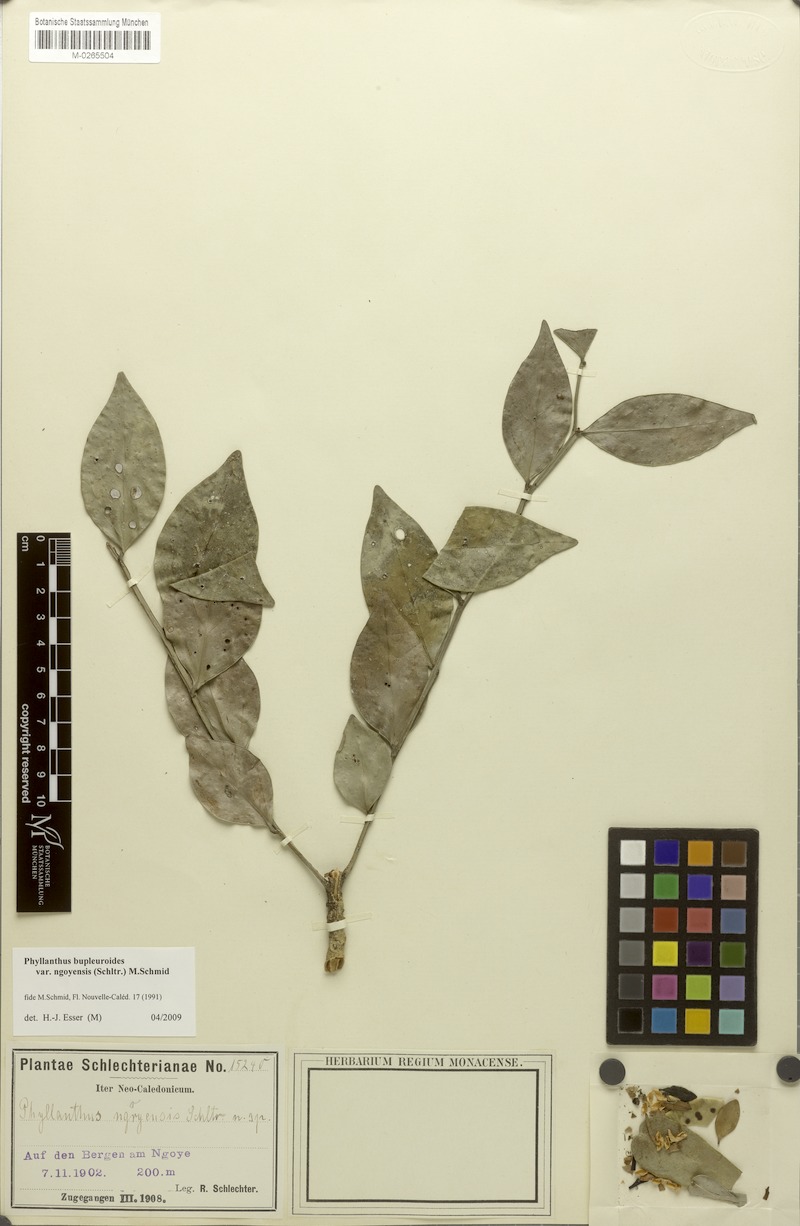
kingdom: Plantae
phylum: Tracheophyta
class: Magnoliopsida
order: Malpighiales
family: Phyllanthaceae
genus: Phyllanthus
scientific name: Phyllanthus bupleuroides
